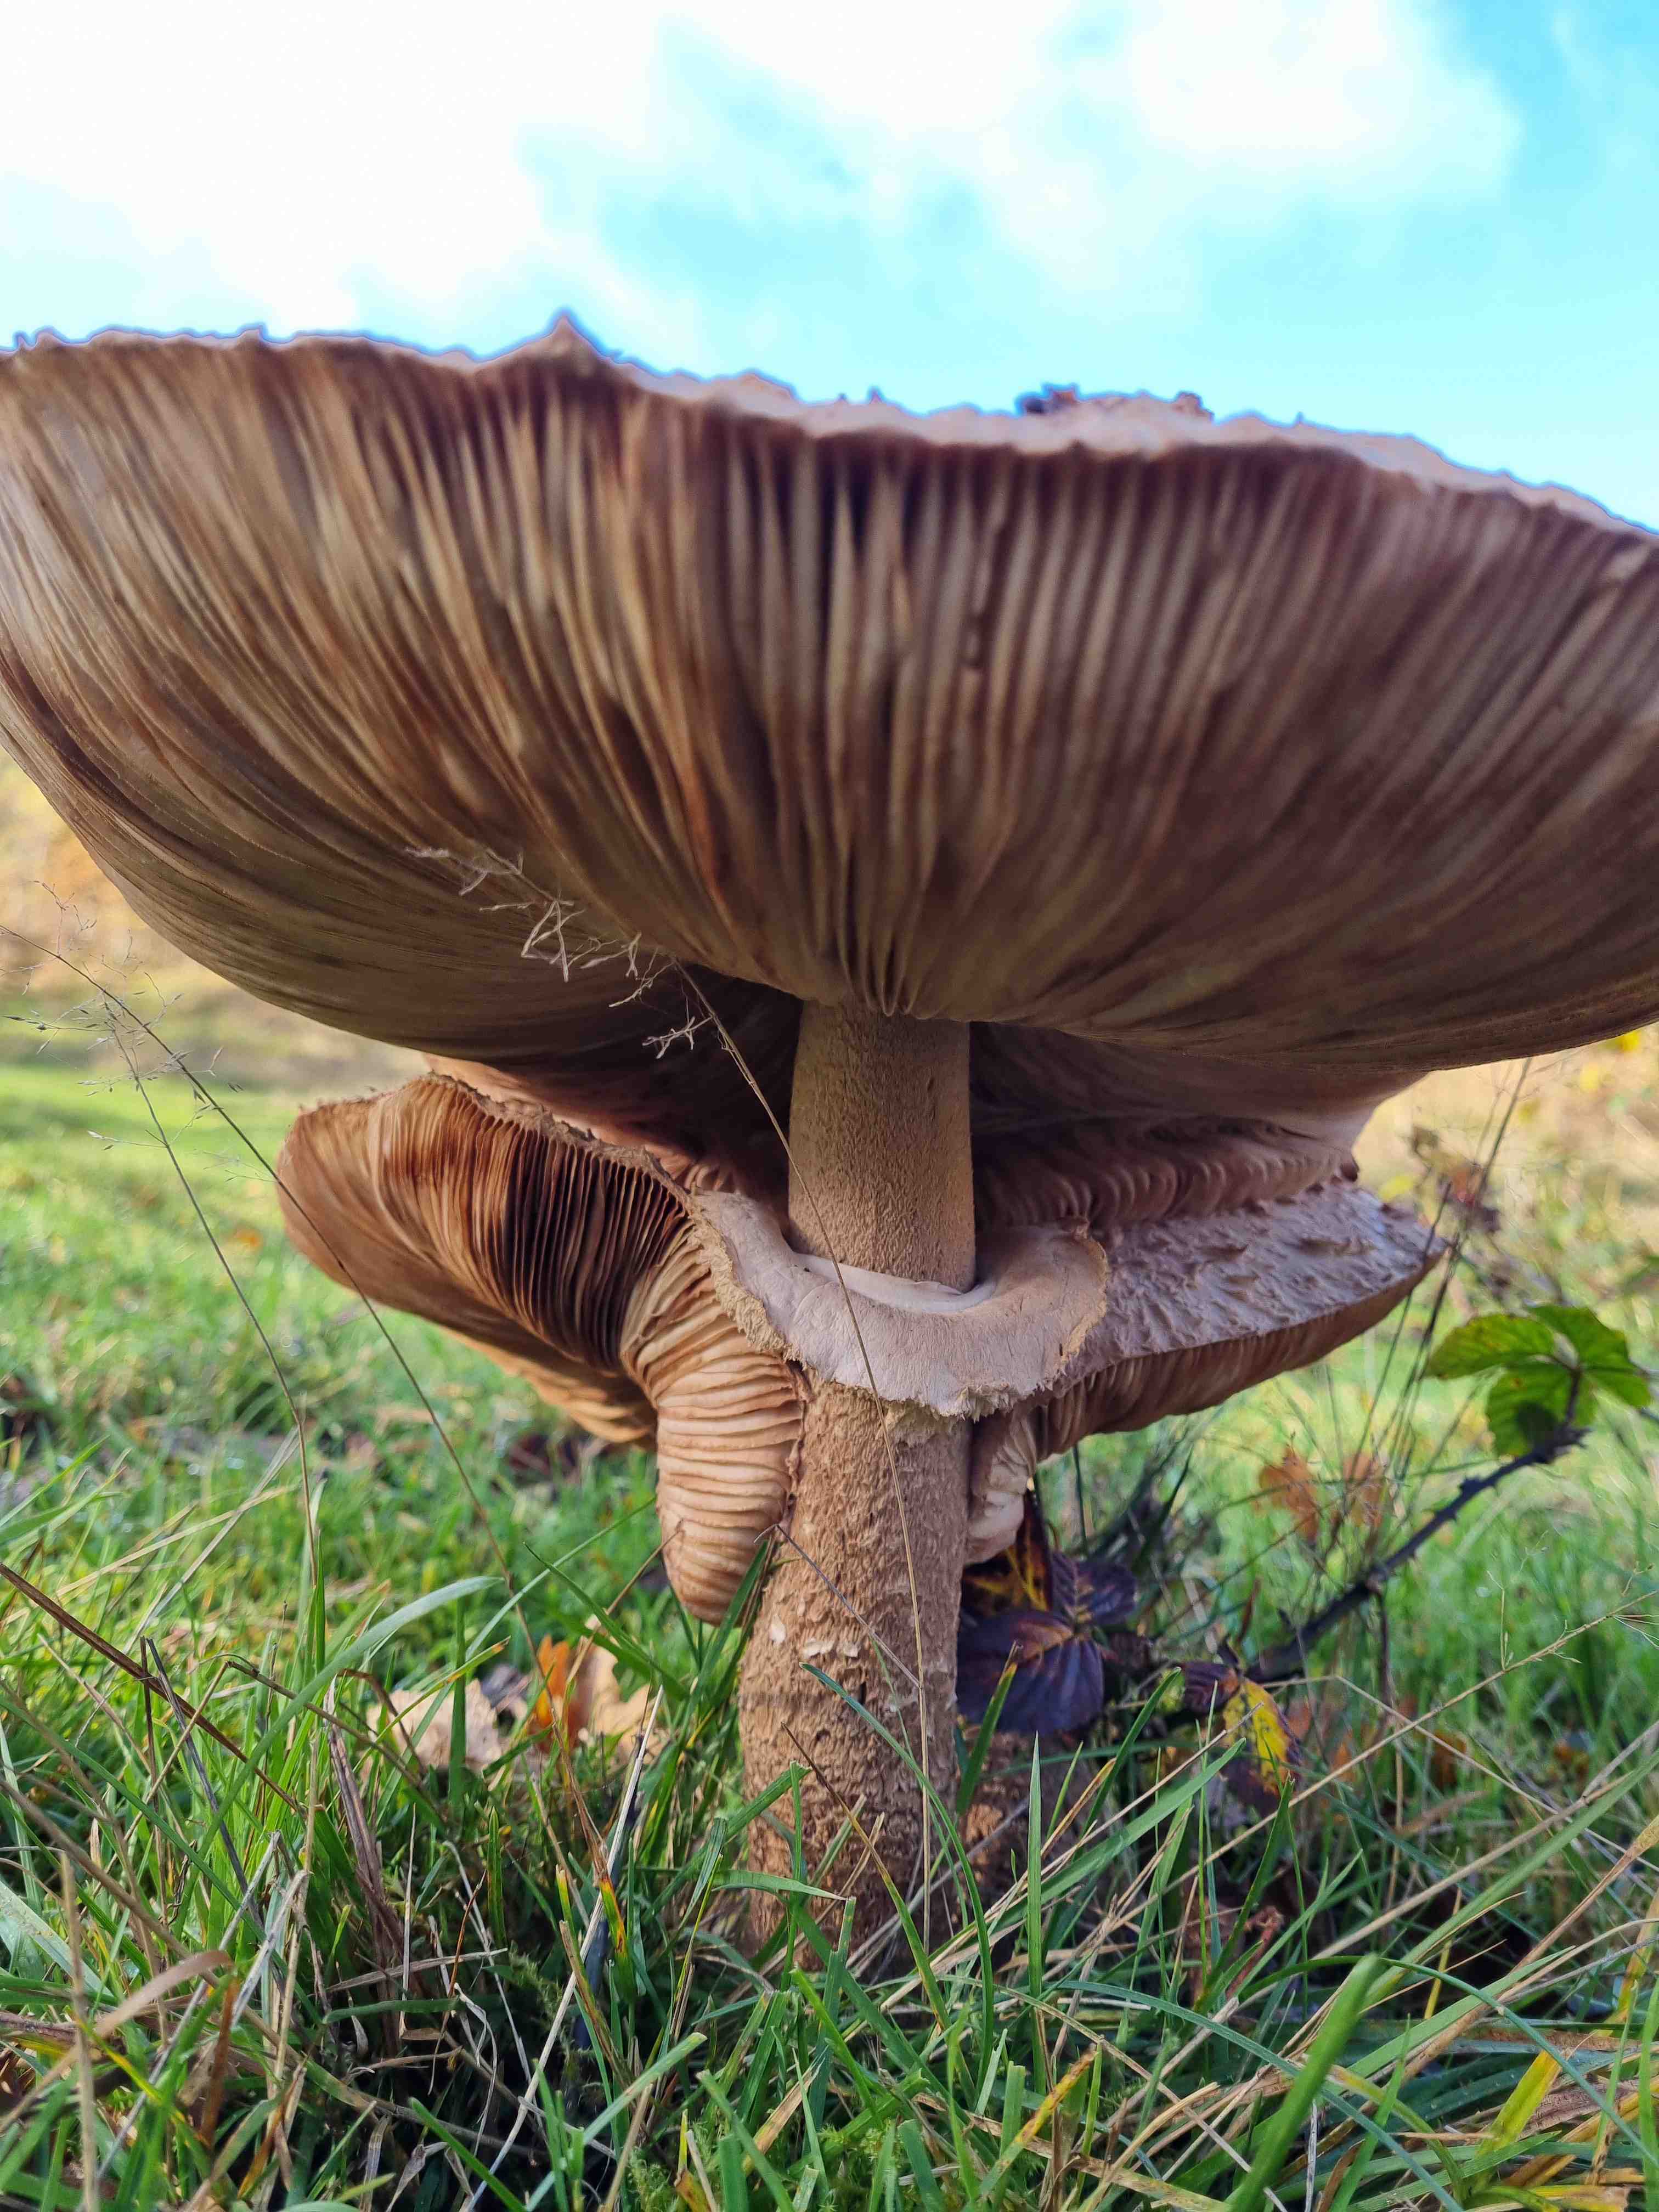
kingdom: Fungi
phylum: Basidiomycota
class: Agaricomycetes
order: Agaricales
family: Agaricaceae
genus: Macrolepiota
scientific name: Macrolepiota procera
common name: stor kæmpeparasolhat
